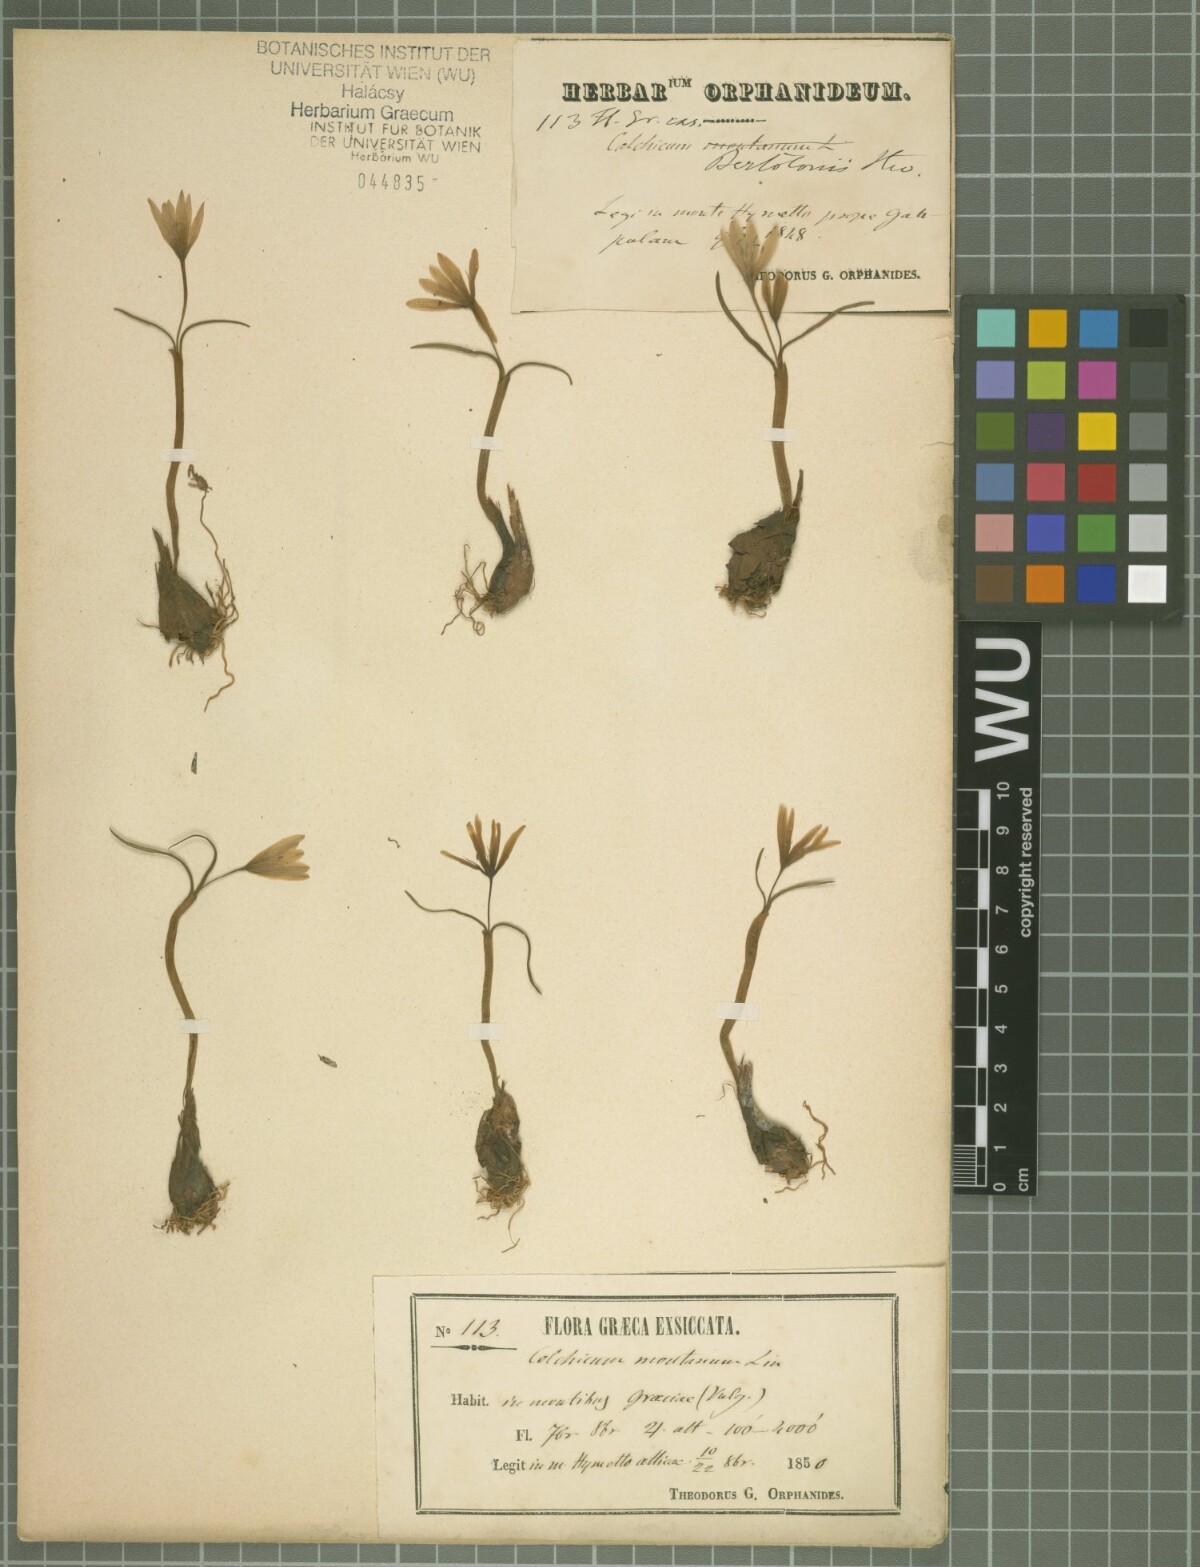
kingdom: Plantae
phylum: Tracheophyta
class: Liliopsida
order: Liliales
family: Colchicaceae
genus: Colchicum
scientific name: Colchicum cupanii
